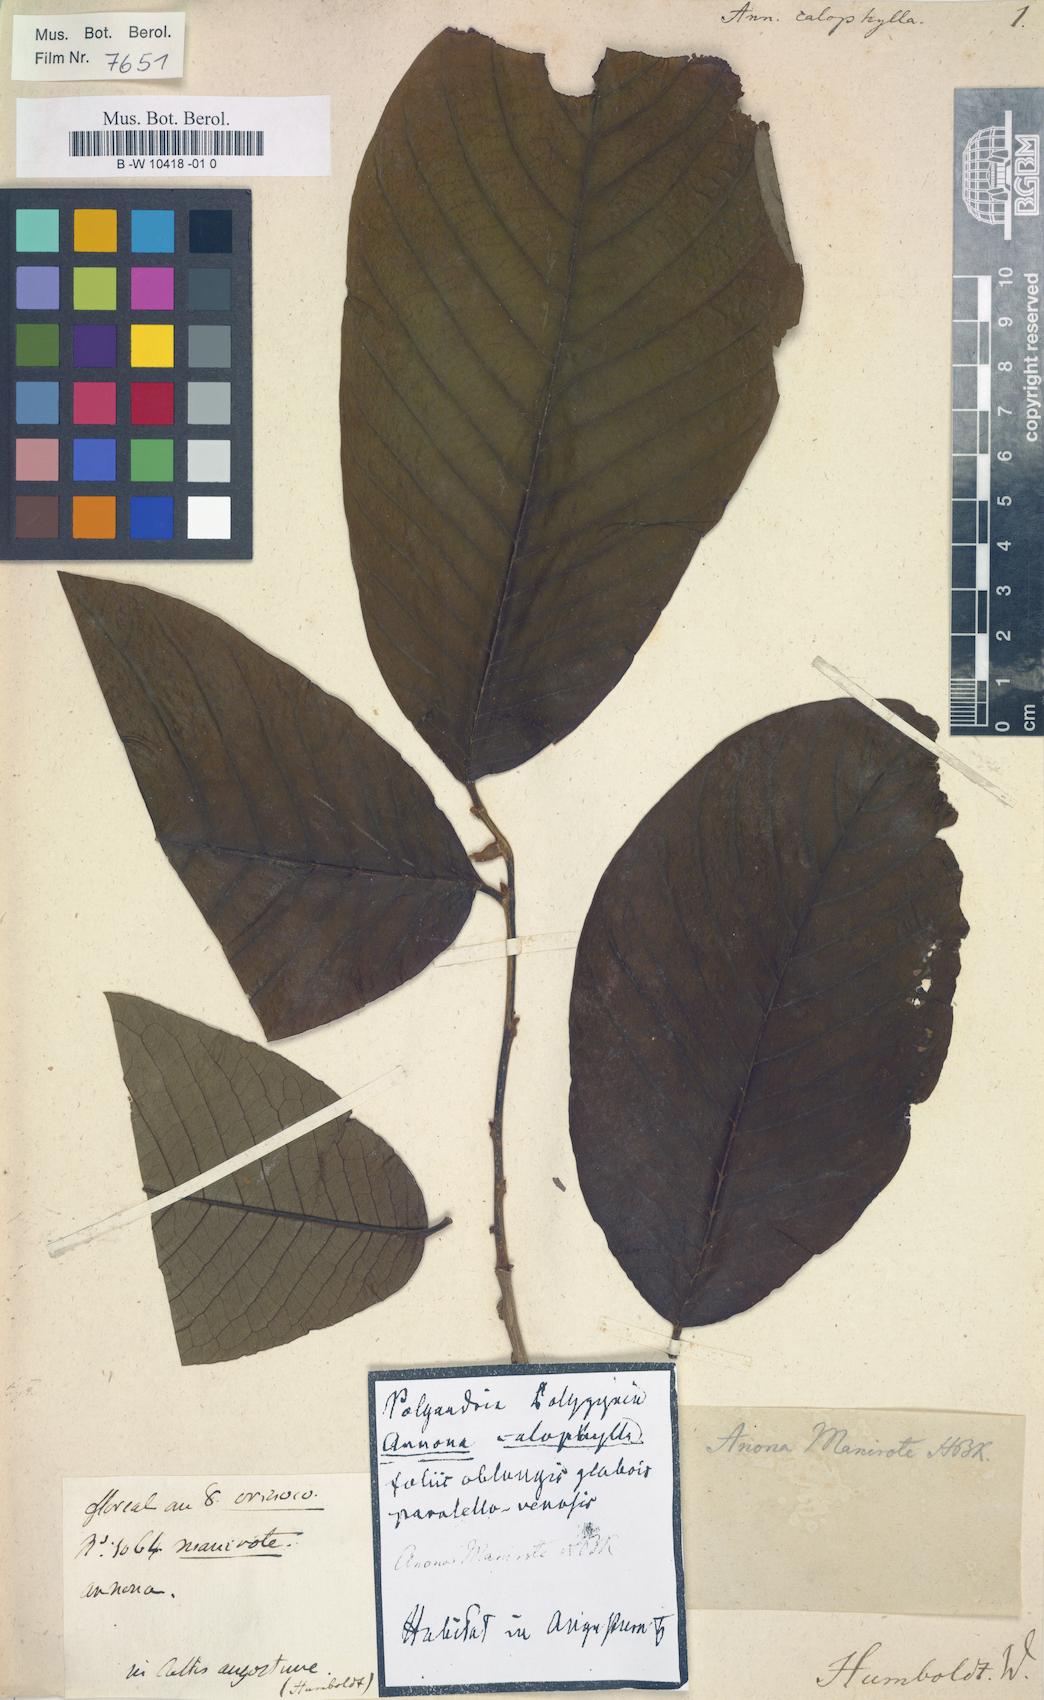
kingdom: Plantae
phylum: Tracheophyta
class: Magnoliopsida
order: Magnoliales
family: Annonaceae
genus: Annona
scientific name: Annona calophylla
